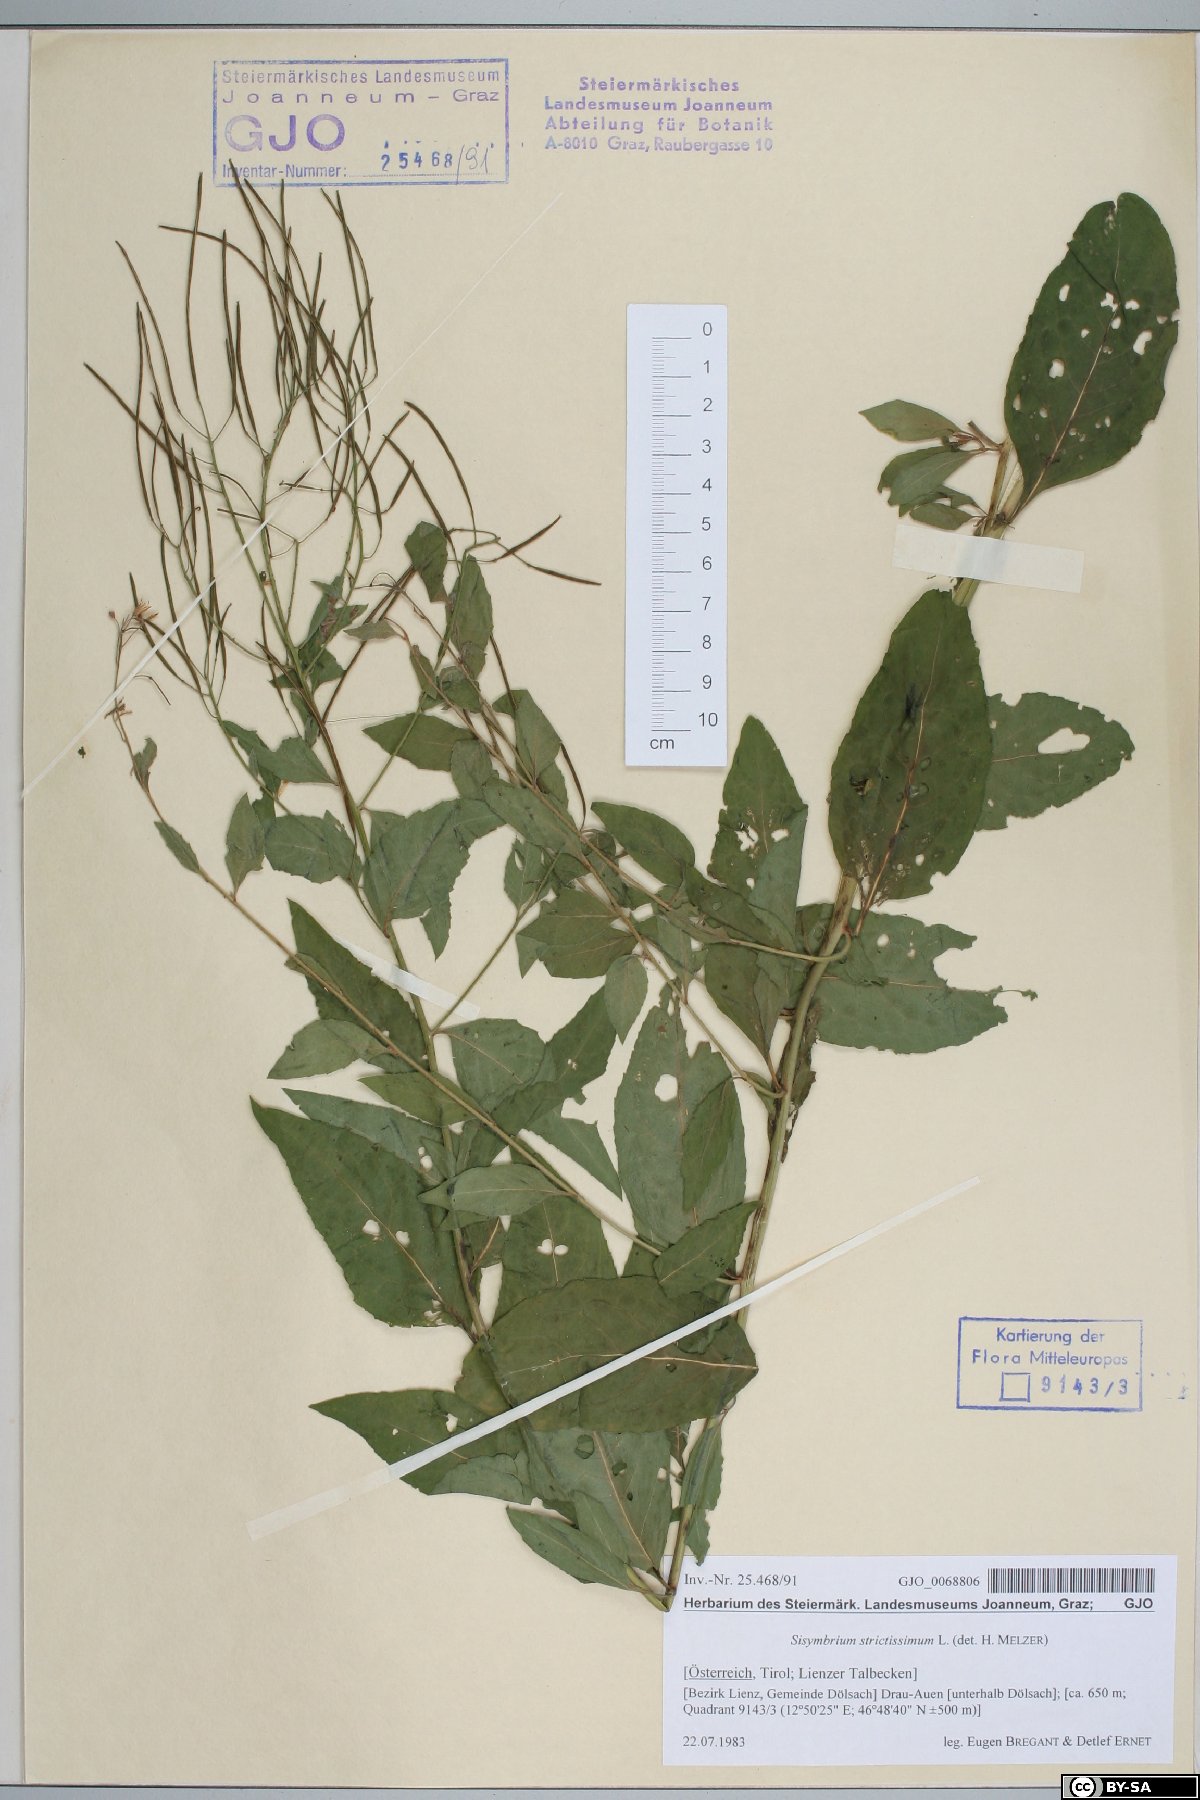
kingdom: Plantae
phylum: Tracheophyta
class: Magnoliopsida
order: Brassicales
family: Brassicaceae
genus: Sisymbrium
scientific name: Sisymbrium strictissimum
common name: Perennial rocket
